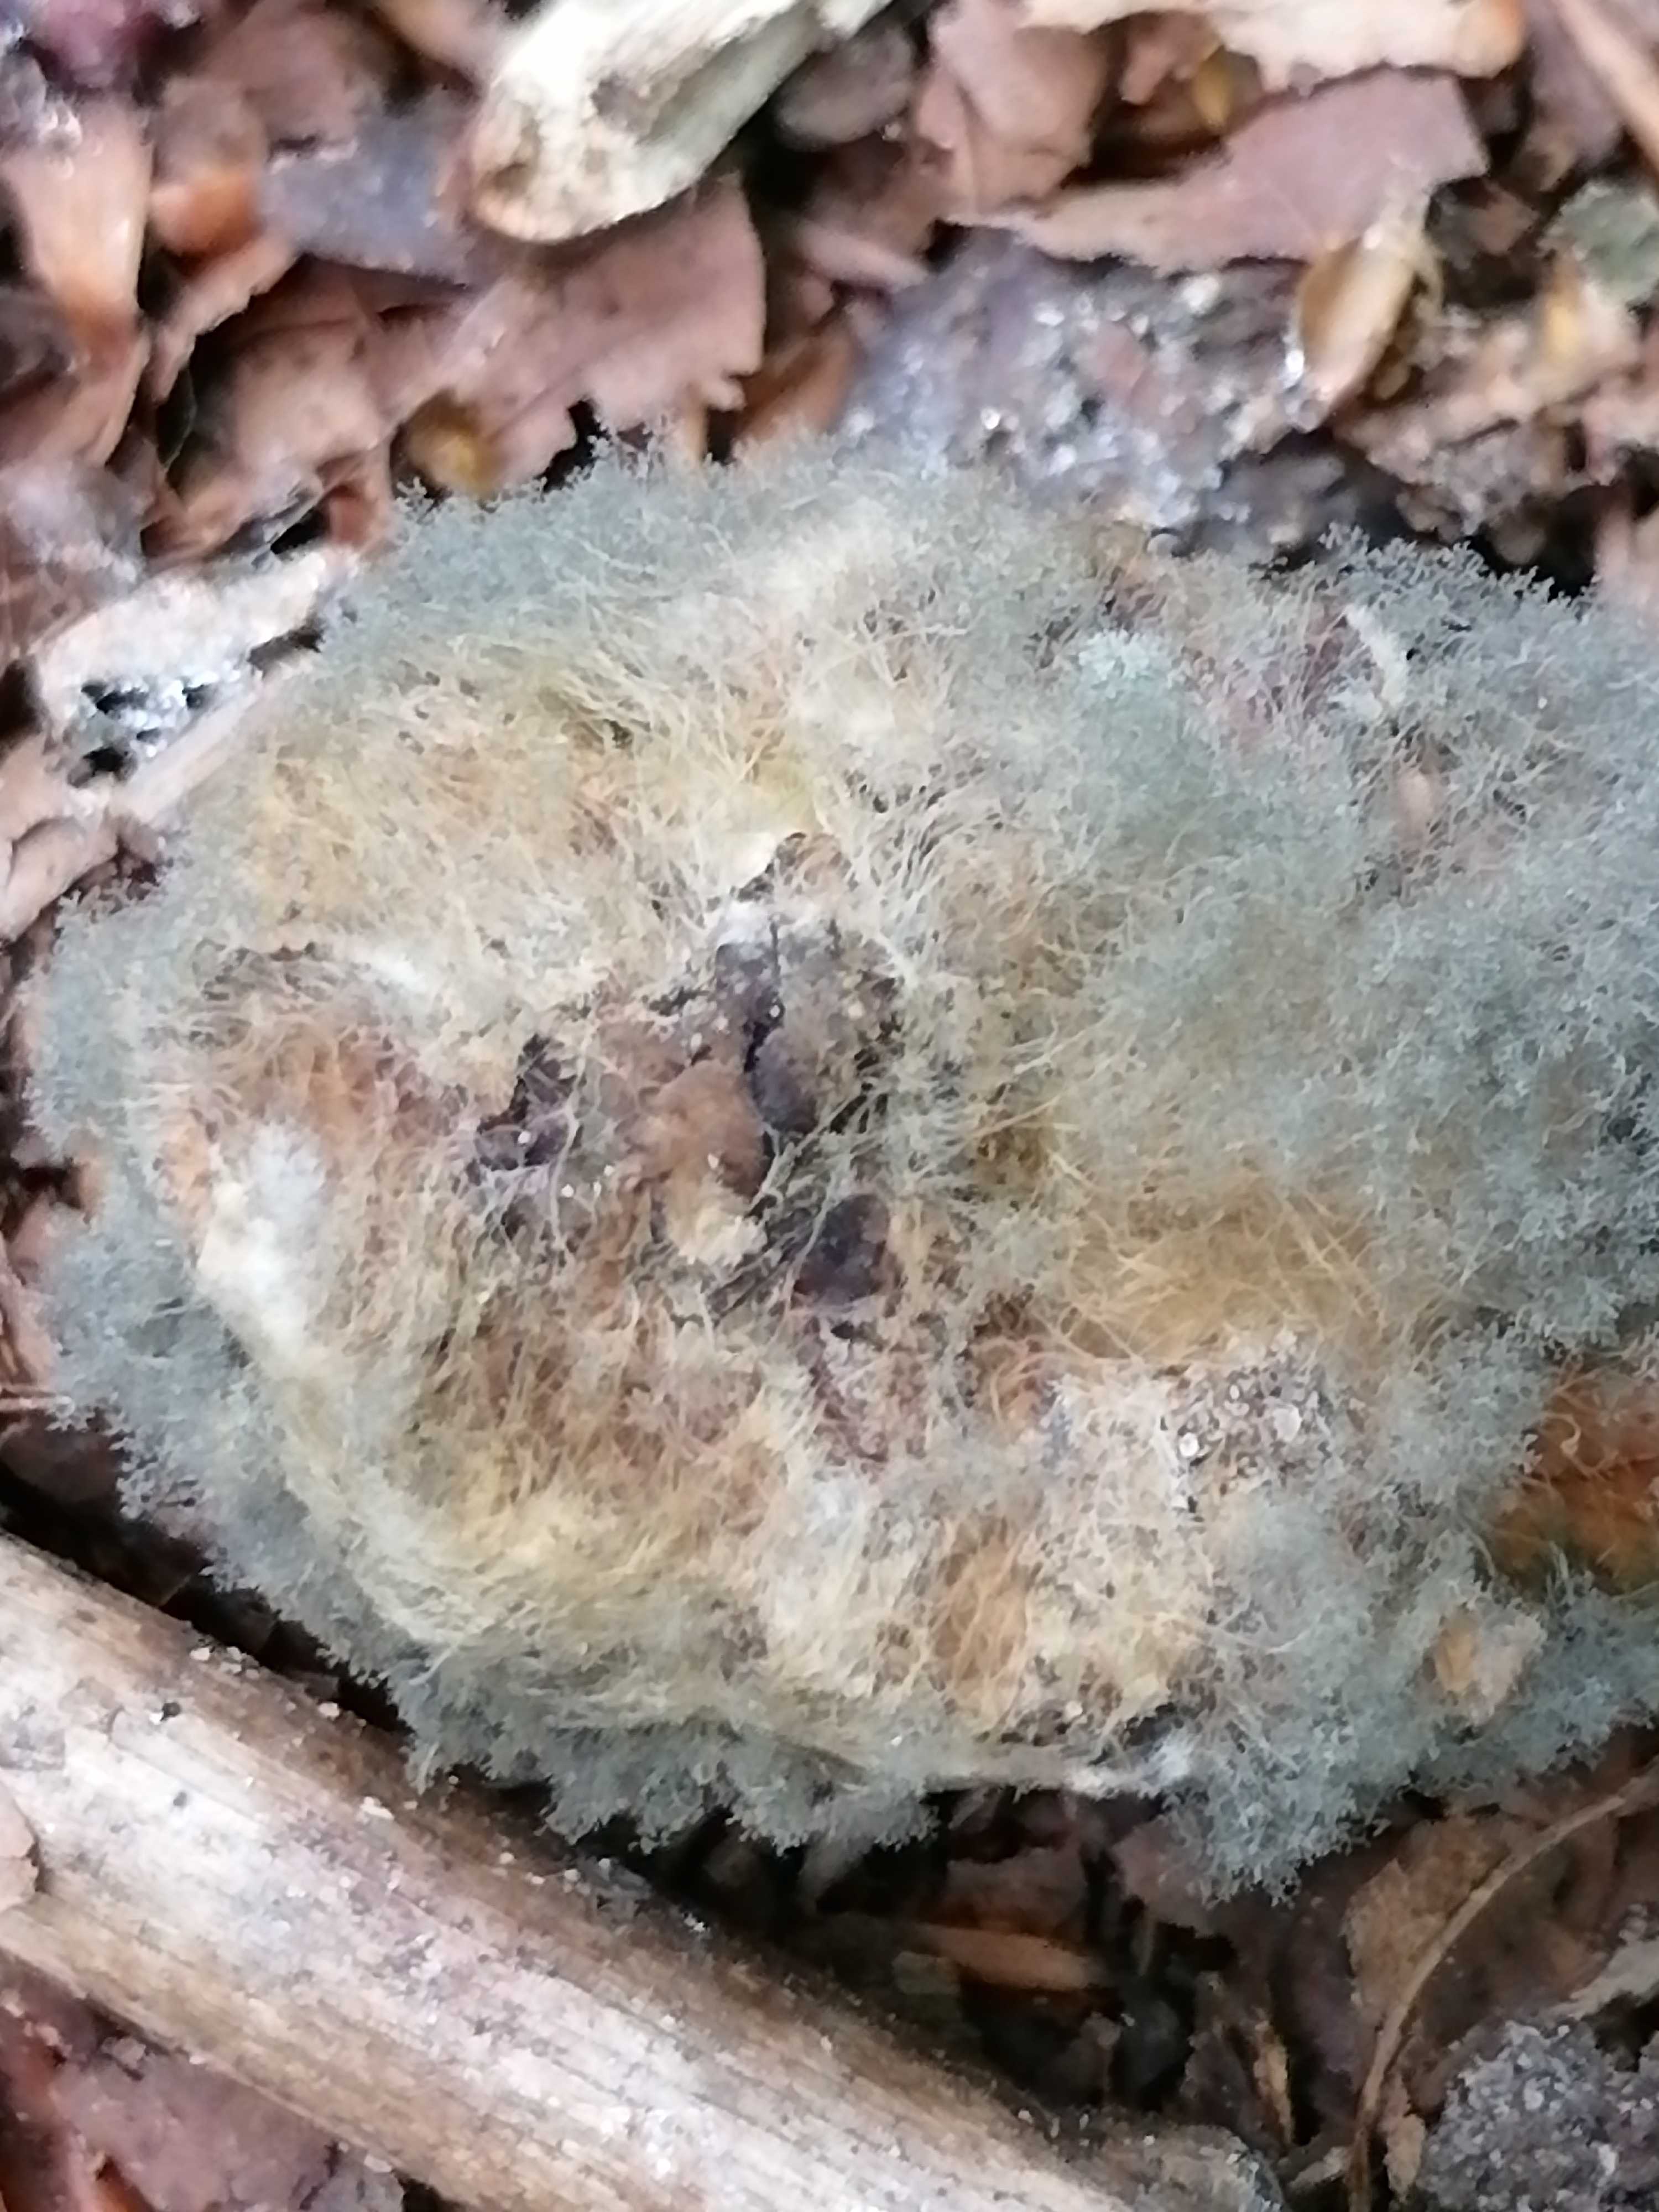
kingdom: Fungi
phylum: Mucoromycota
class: Mucoromycetes
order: Mucorales
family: Rhizopodaceae
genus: Syzygites
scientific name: Syzygites megalocarpus
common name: nissenål
